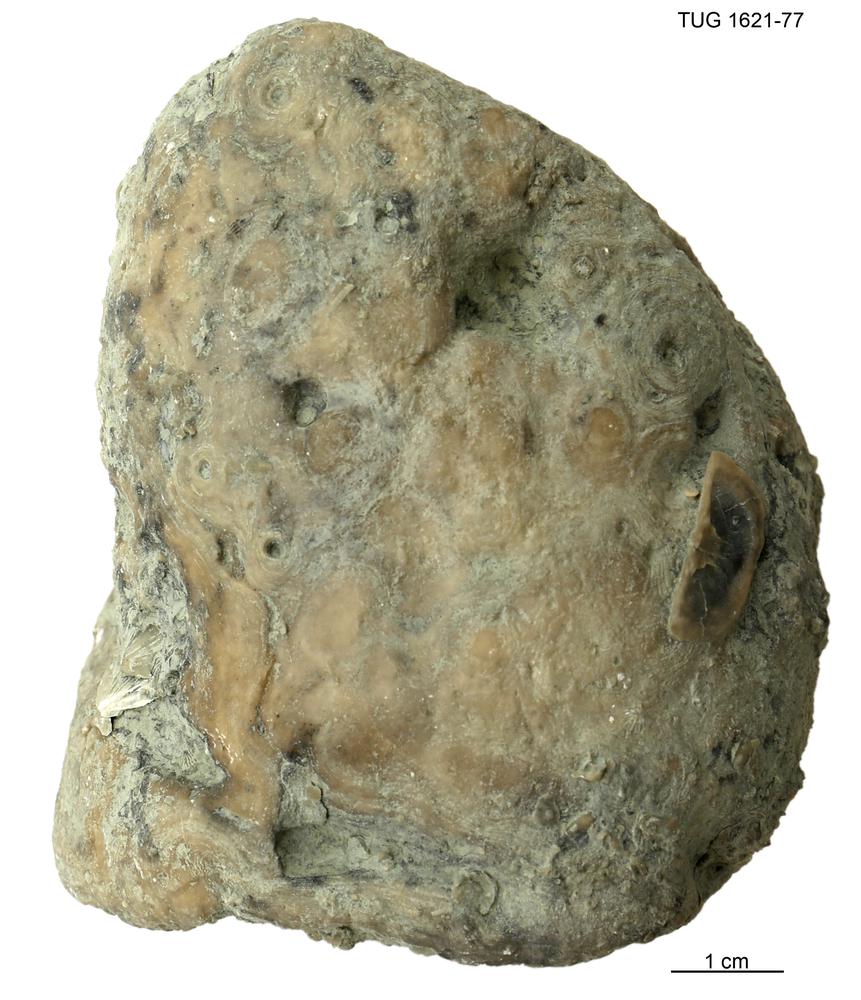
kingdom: Animalia
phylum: Porifera
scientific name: Porifera
